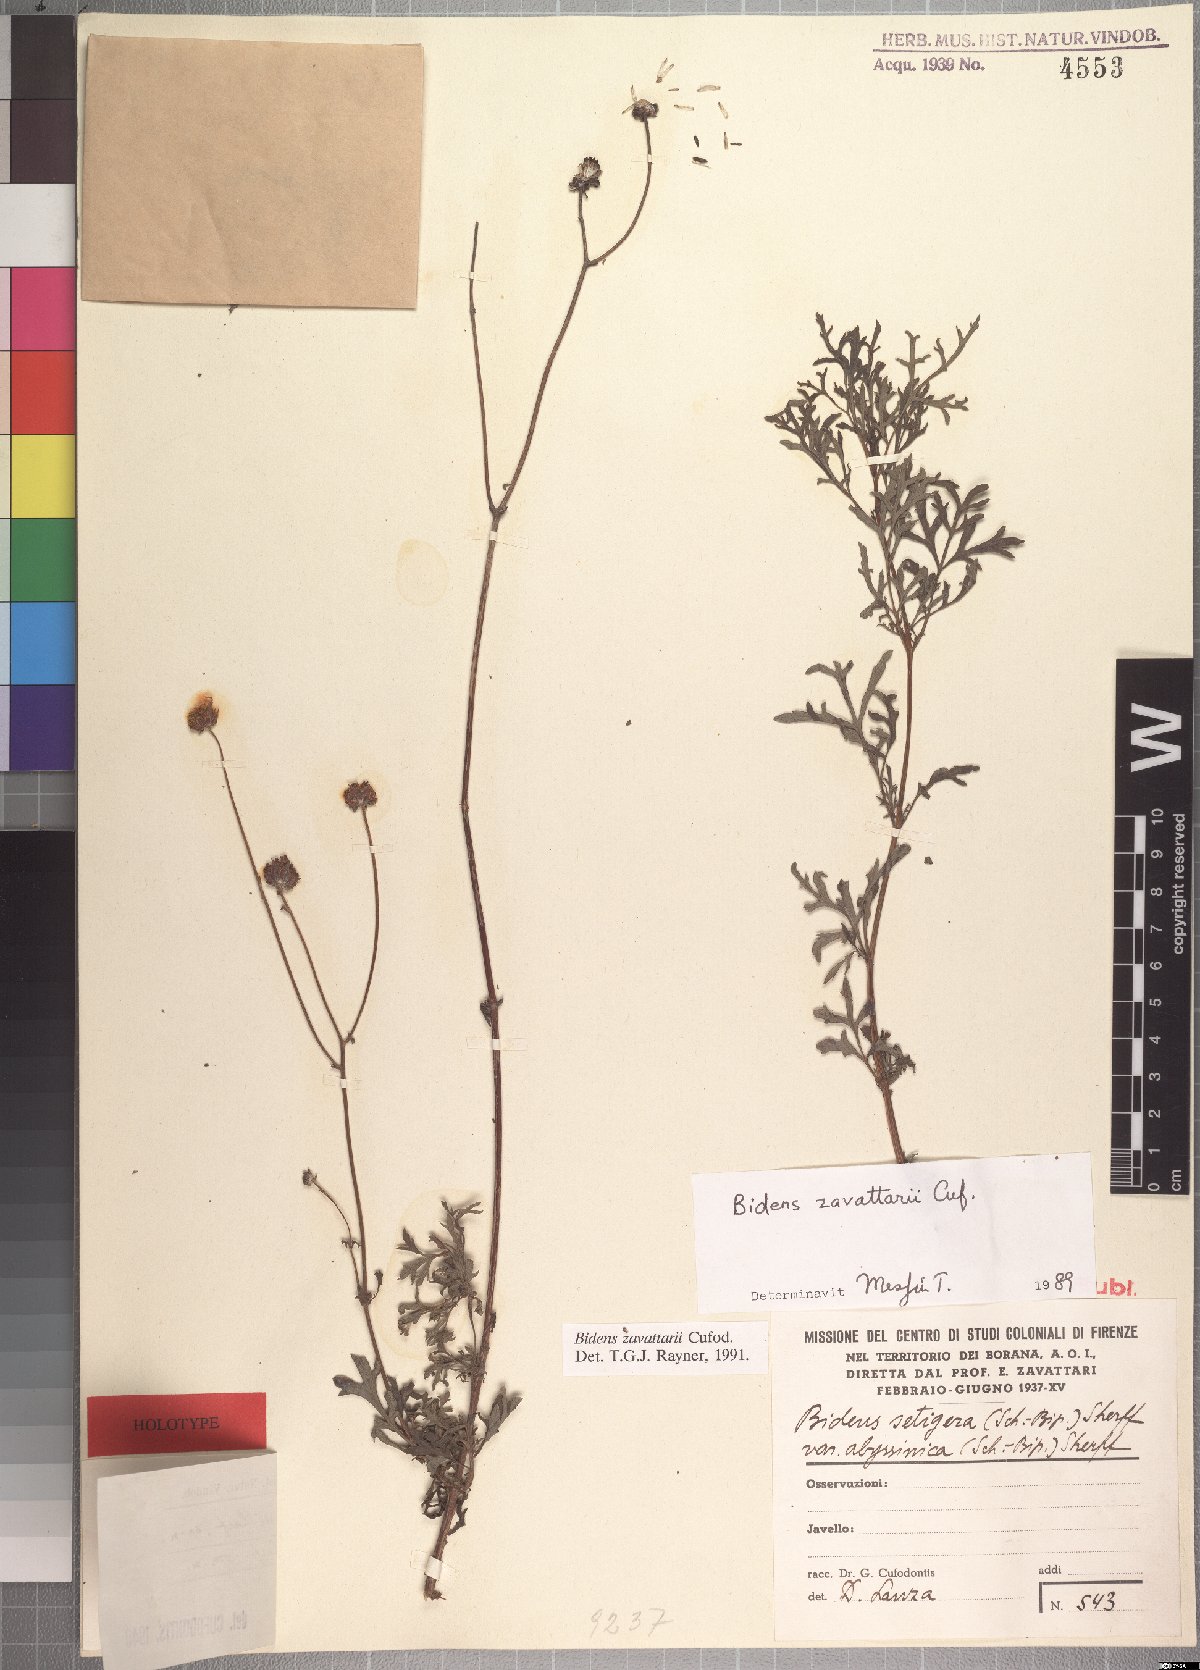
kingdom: Plantae
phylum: Tracheophyta
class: Magnoliopsida
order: Asterales
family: Asteraceae
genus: Bidens
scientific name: Bidens zavattarii
